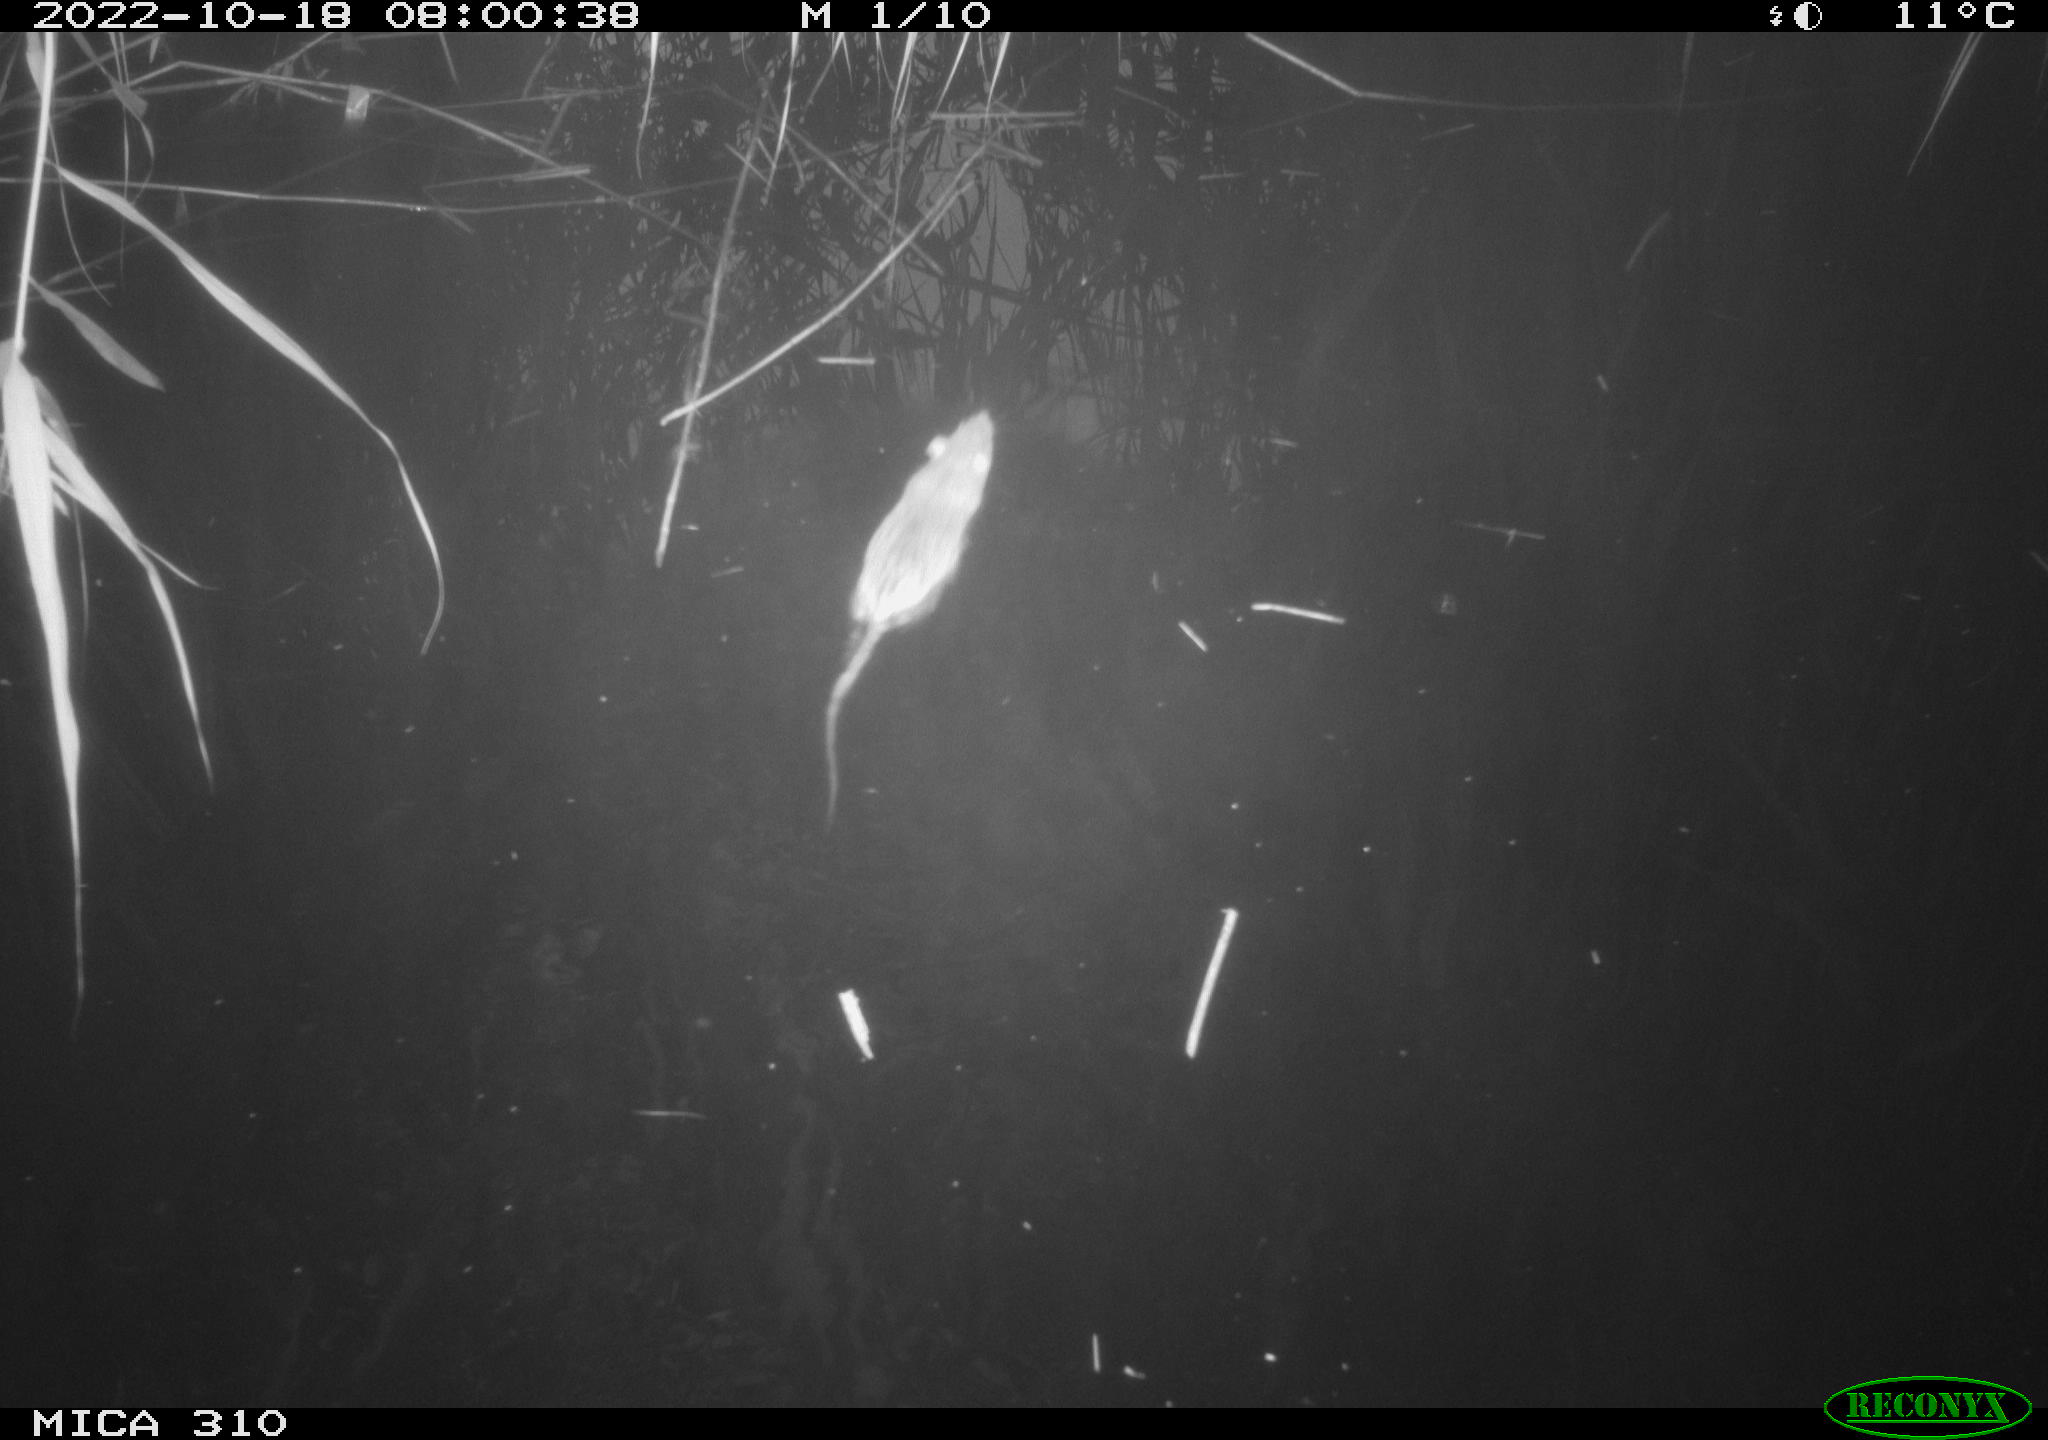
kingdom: Animalia
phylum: Chordata
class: Mammalia
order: Rodentia
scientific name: Rodentia
